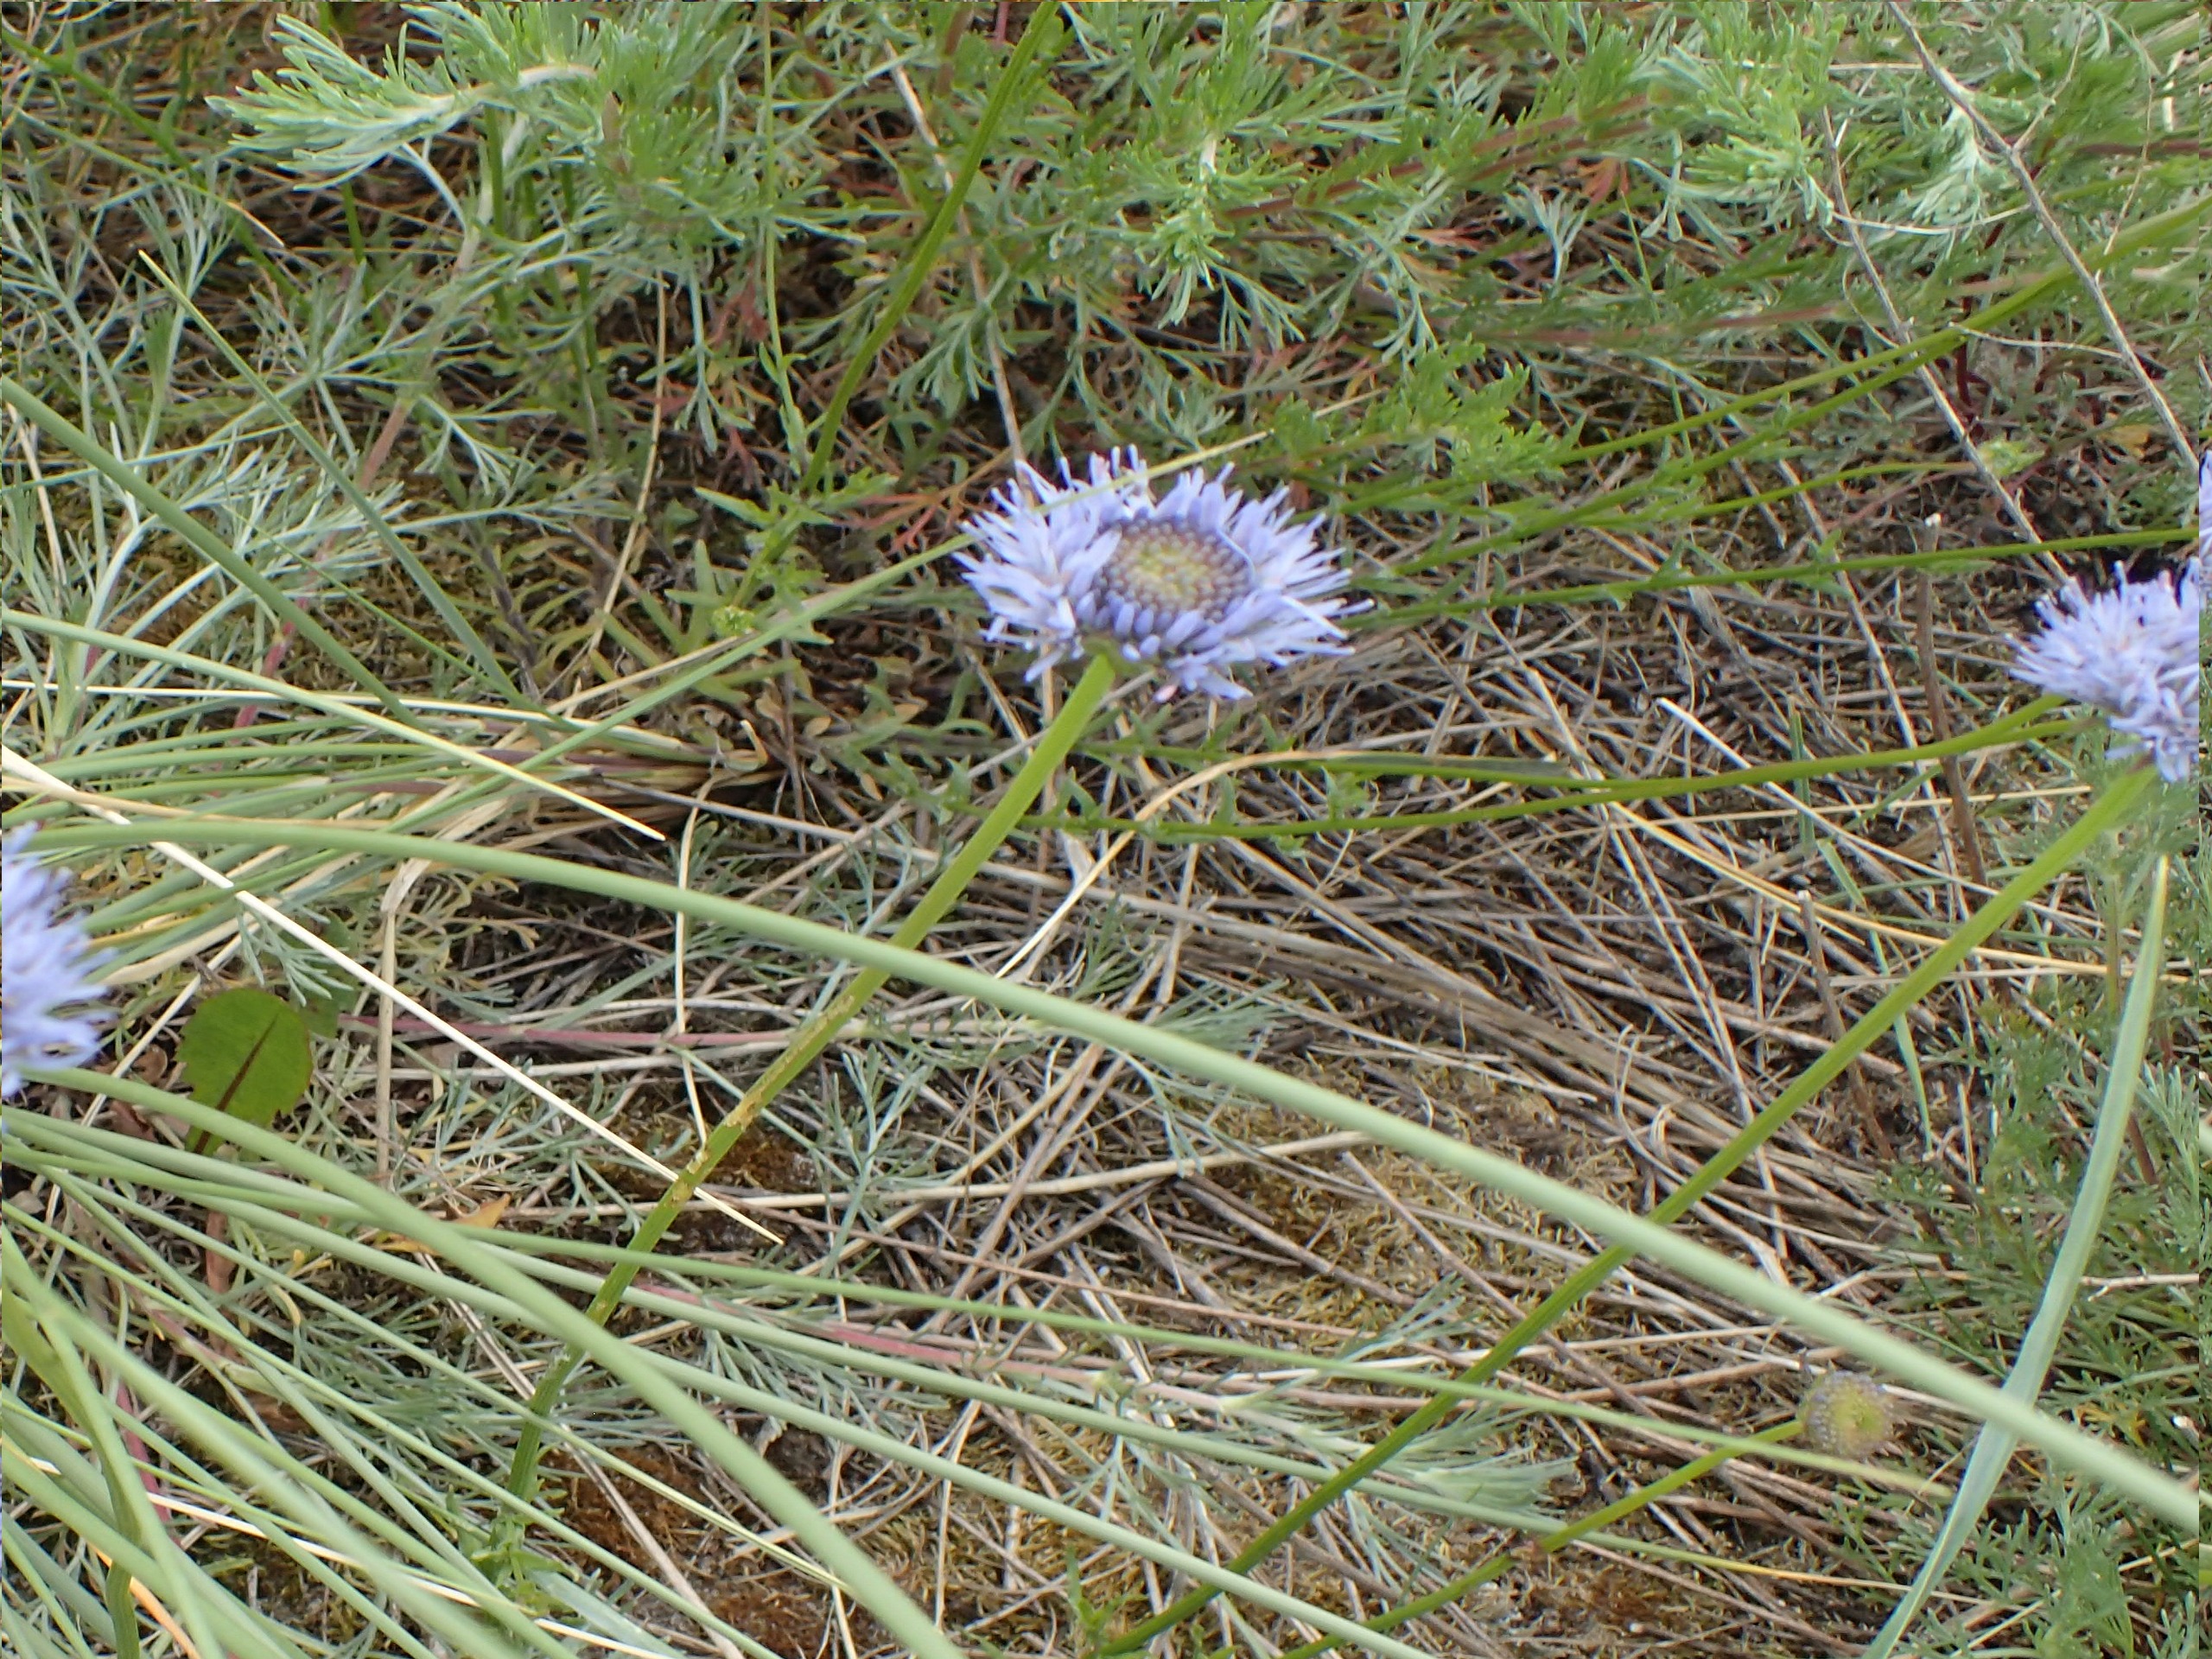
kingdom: Plantae
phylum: Tracheophyta
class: Magnoliopsida
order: Asterales
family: Campanulaceae
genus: Jasione
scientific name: Jasione montana
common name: Blåmunke
